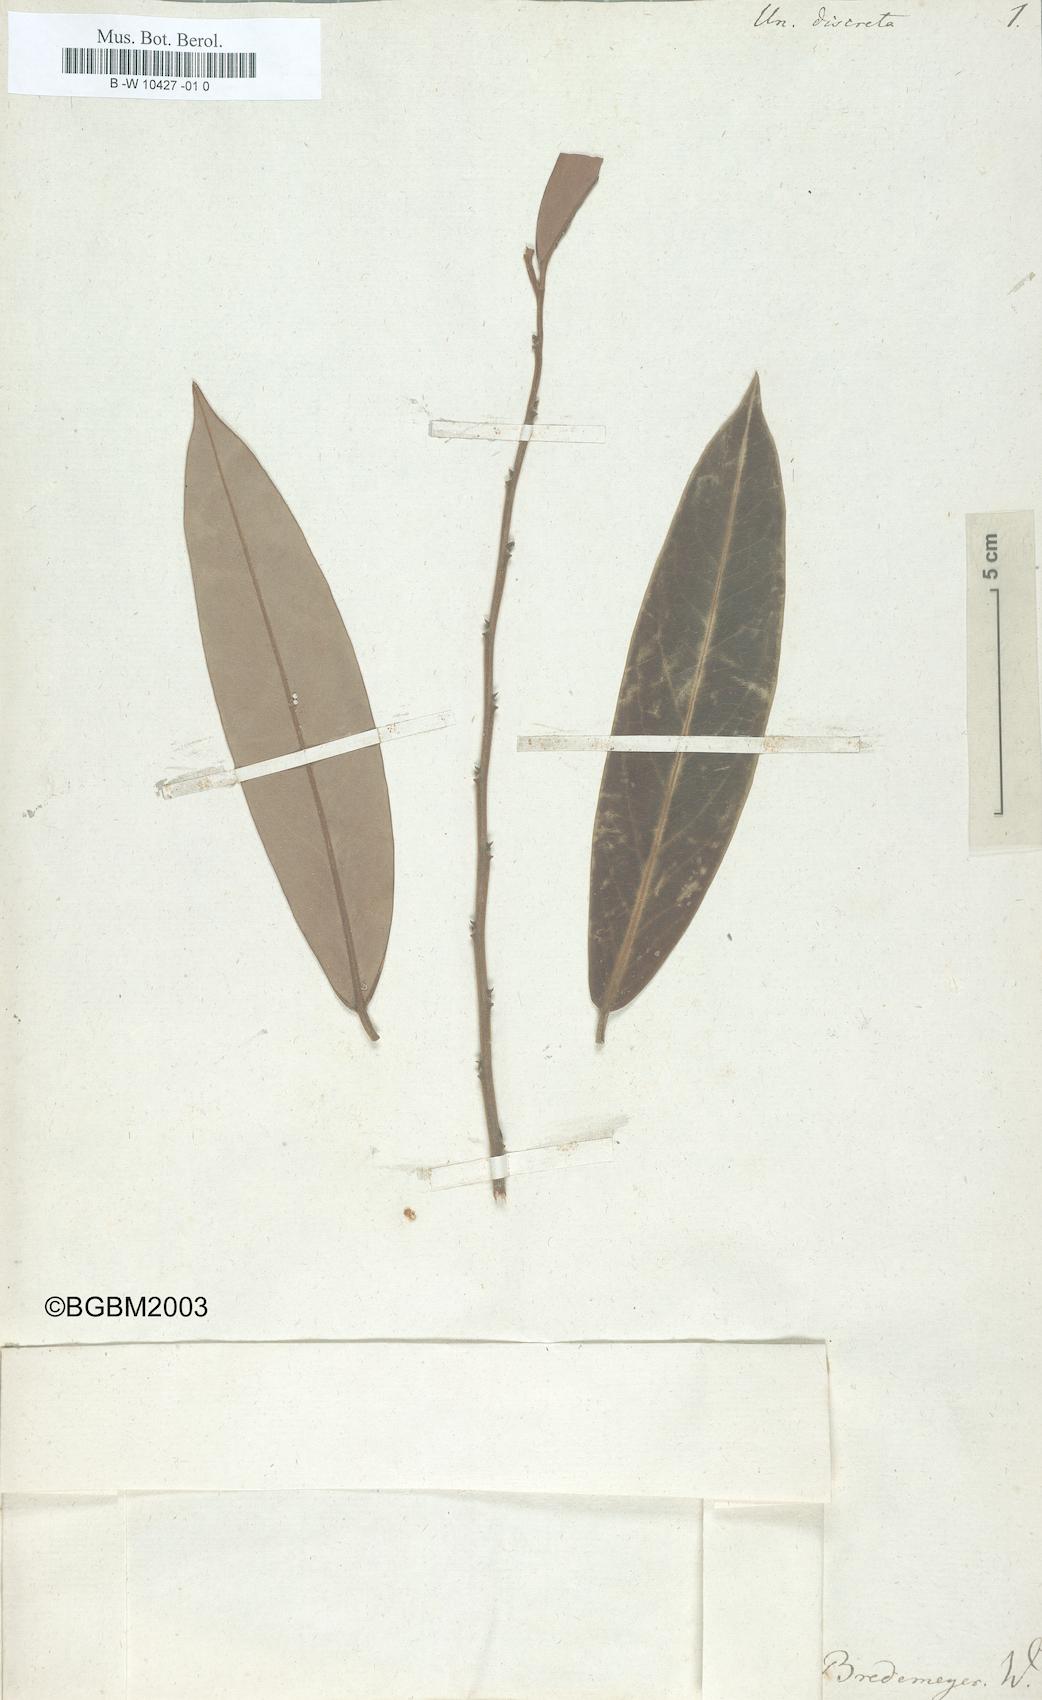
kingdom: Plantae
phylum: Tracheophyta
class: Magnoliopsida
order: Magnoliales
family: Annonaceae
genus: Xylopia
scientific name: Xylopia discreta
